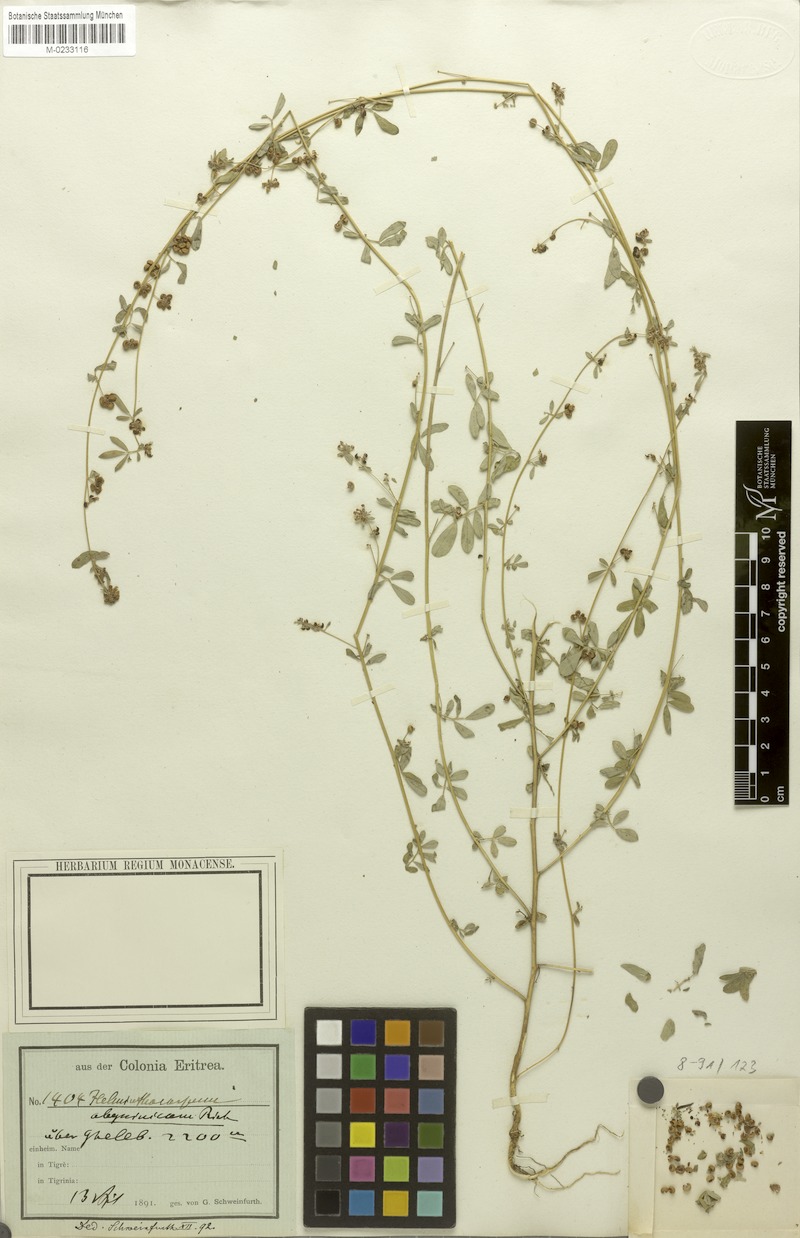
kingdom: Plantae
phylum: Tracheophyta
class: Magnoliopsida
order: Fabales
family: Fabaceae
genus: Helminthocarpum
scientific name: Helminthocarpum abyssinicum
